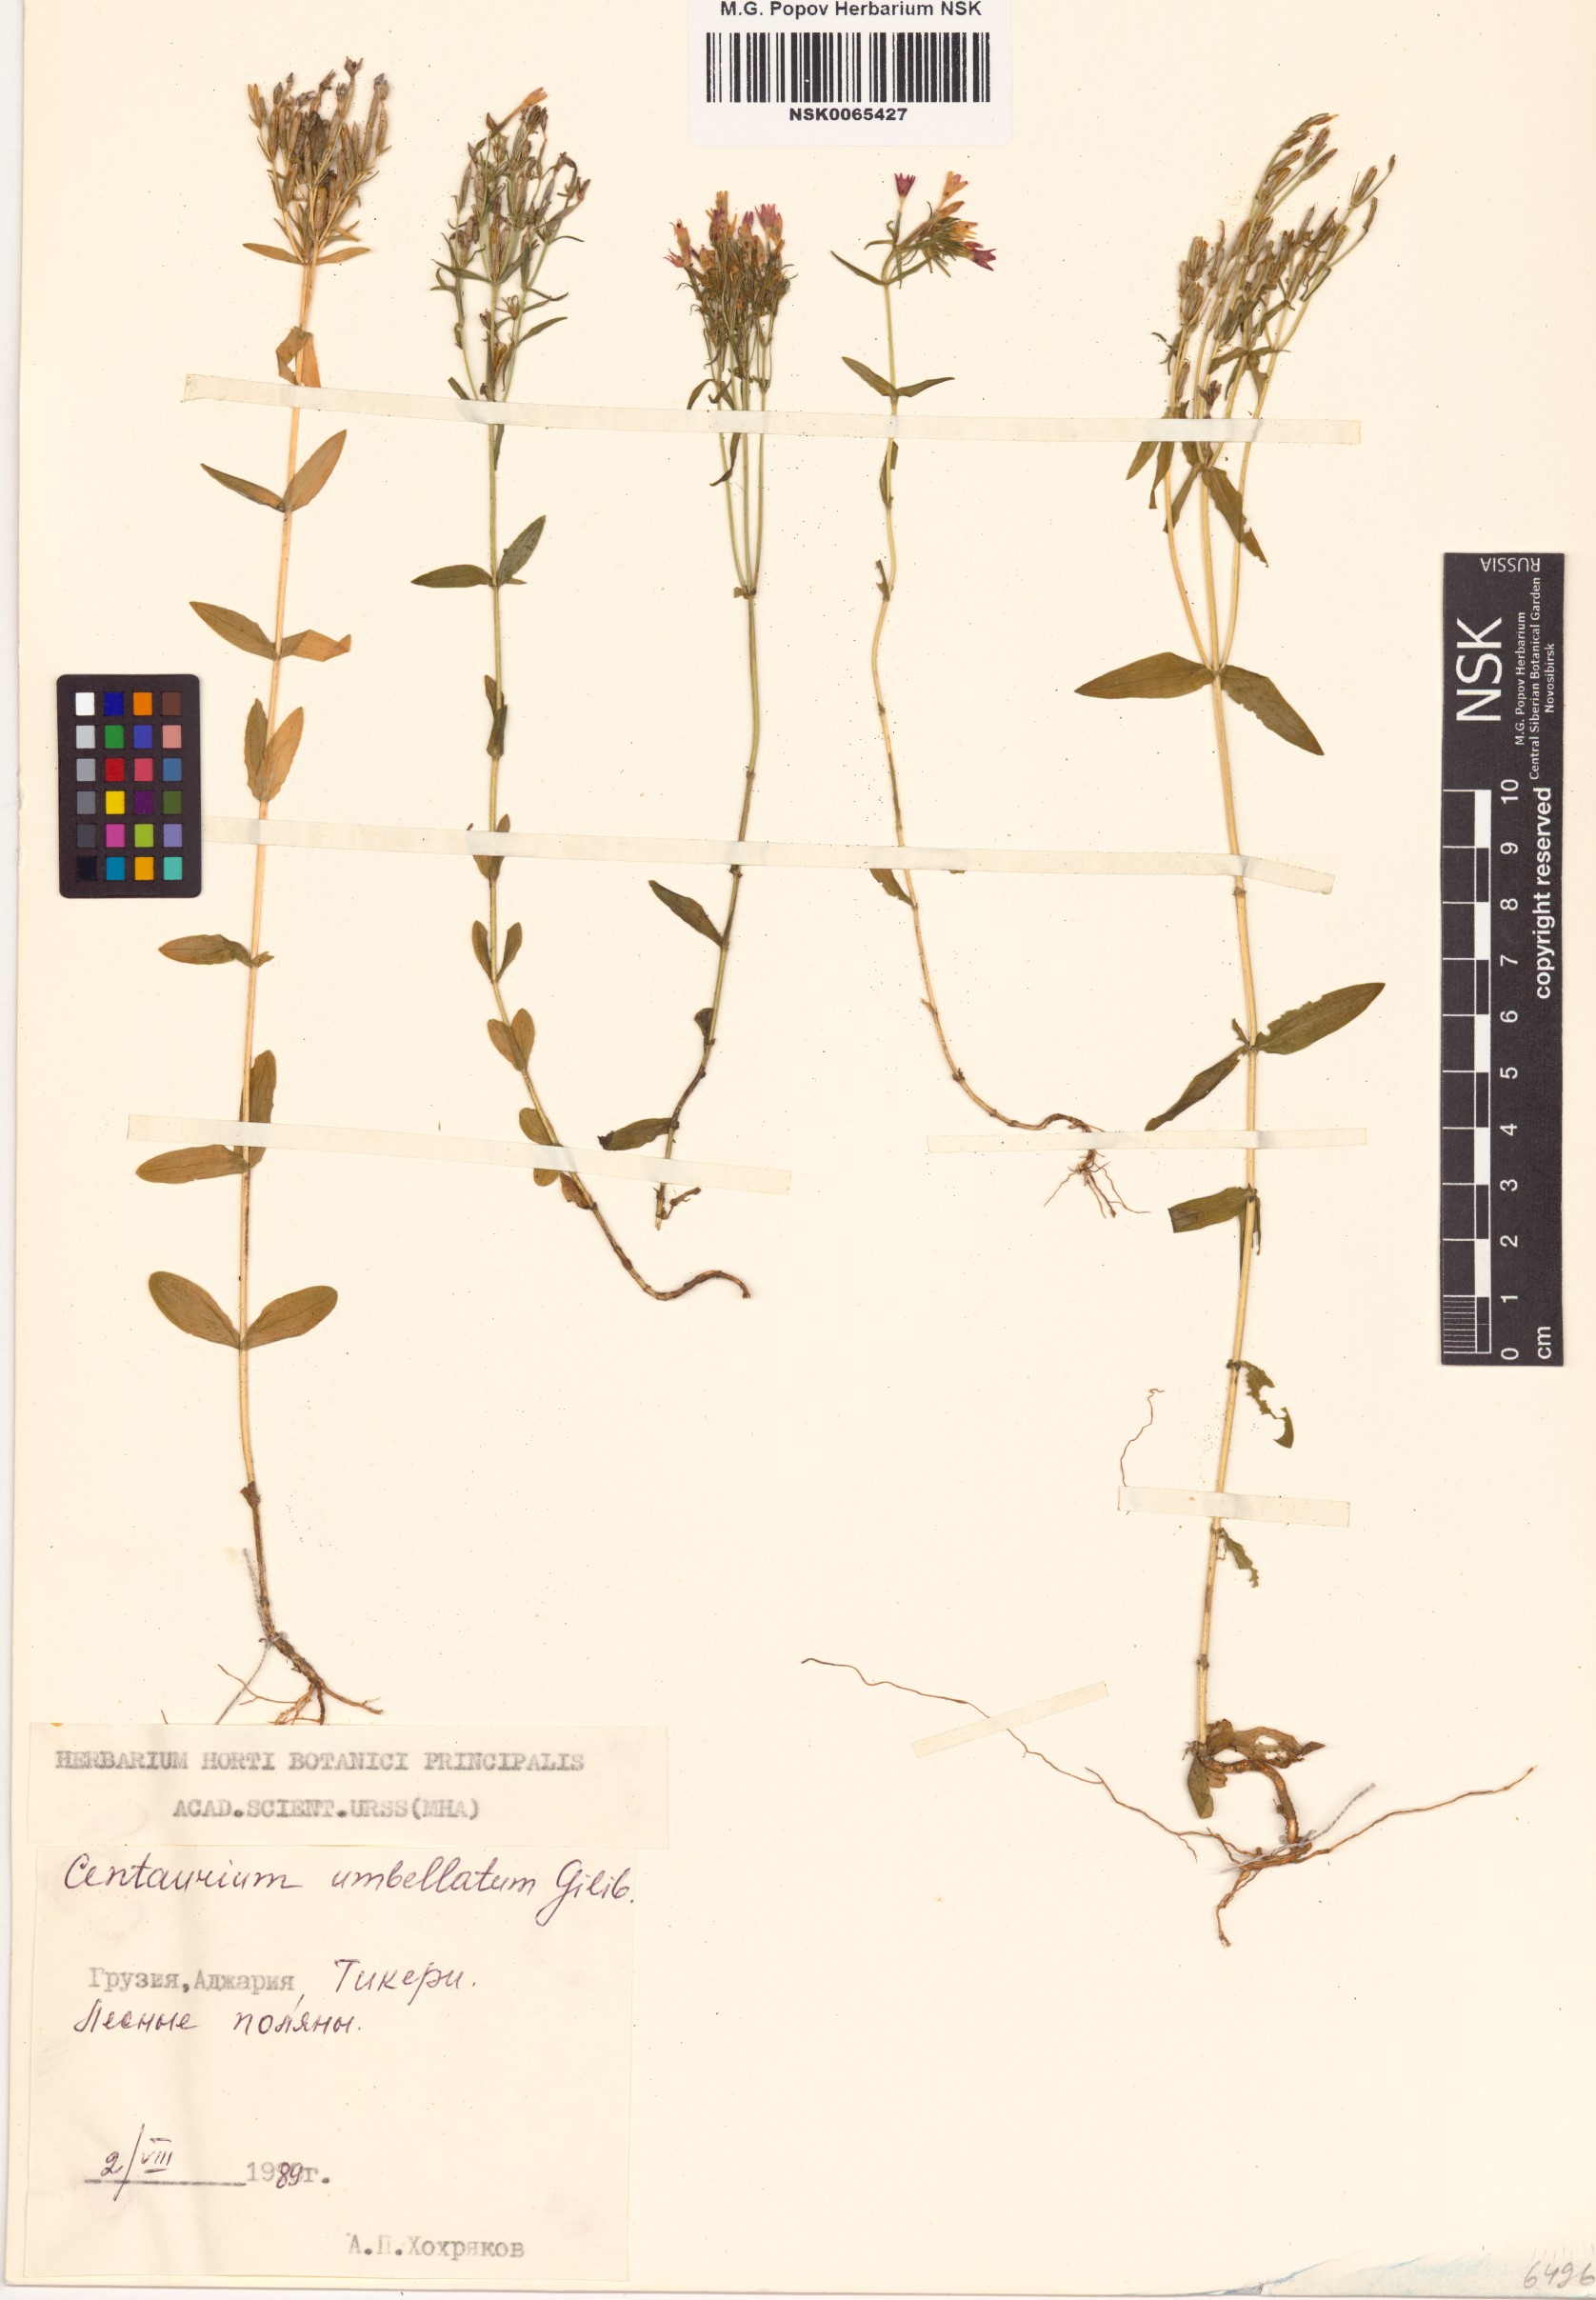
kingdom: Plantae
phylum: Tracheophyta
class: Magnoliopsida
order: Gentianales
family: Gentianaceae
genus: Centaurium
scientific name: Centaurium erythraea
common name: Common centaury
